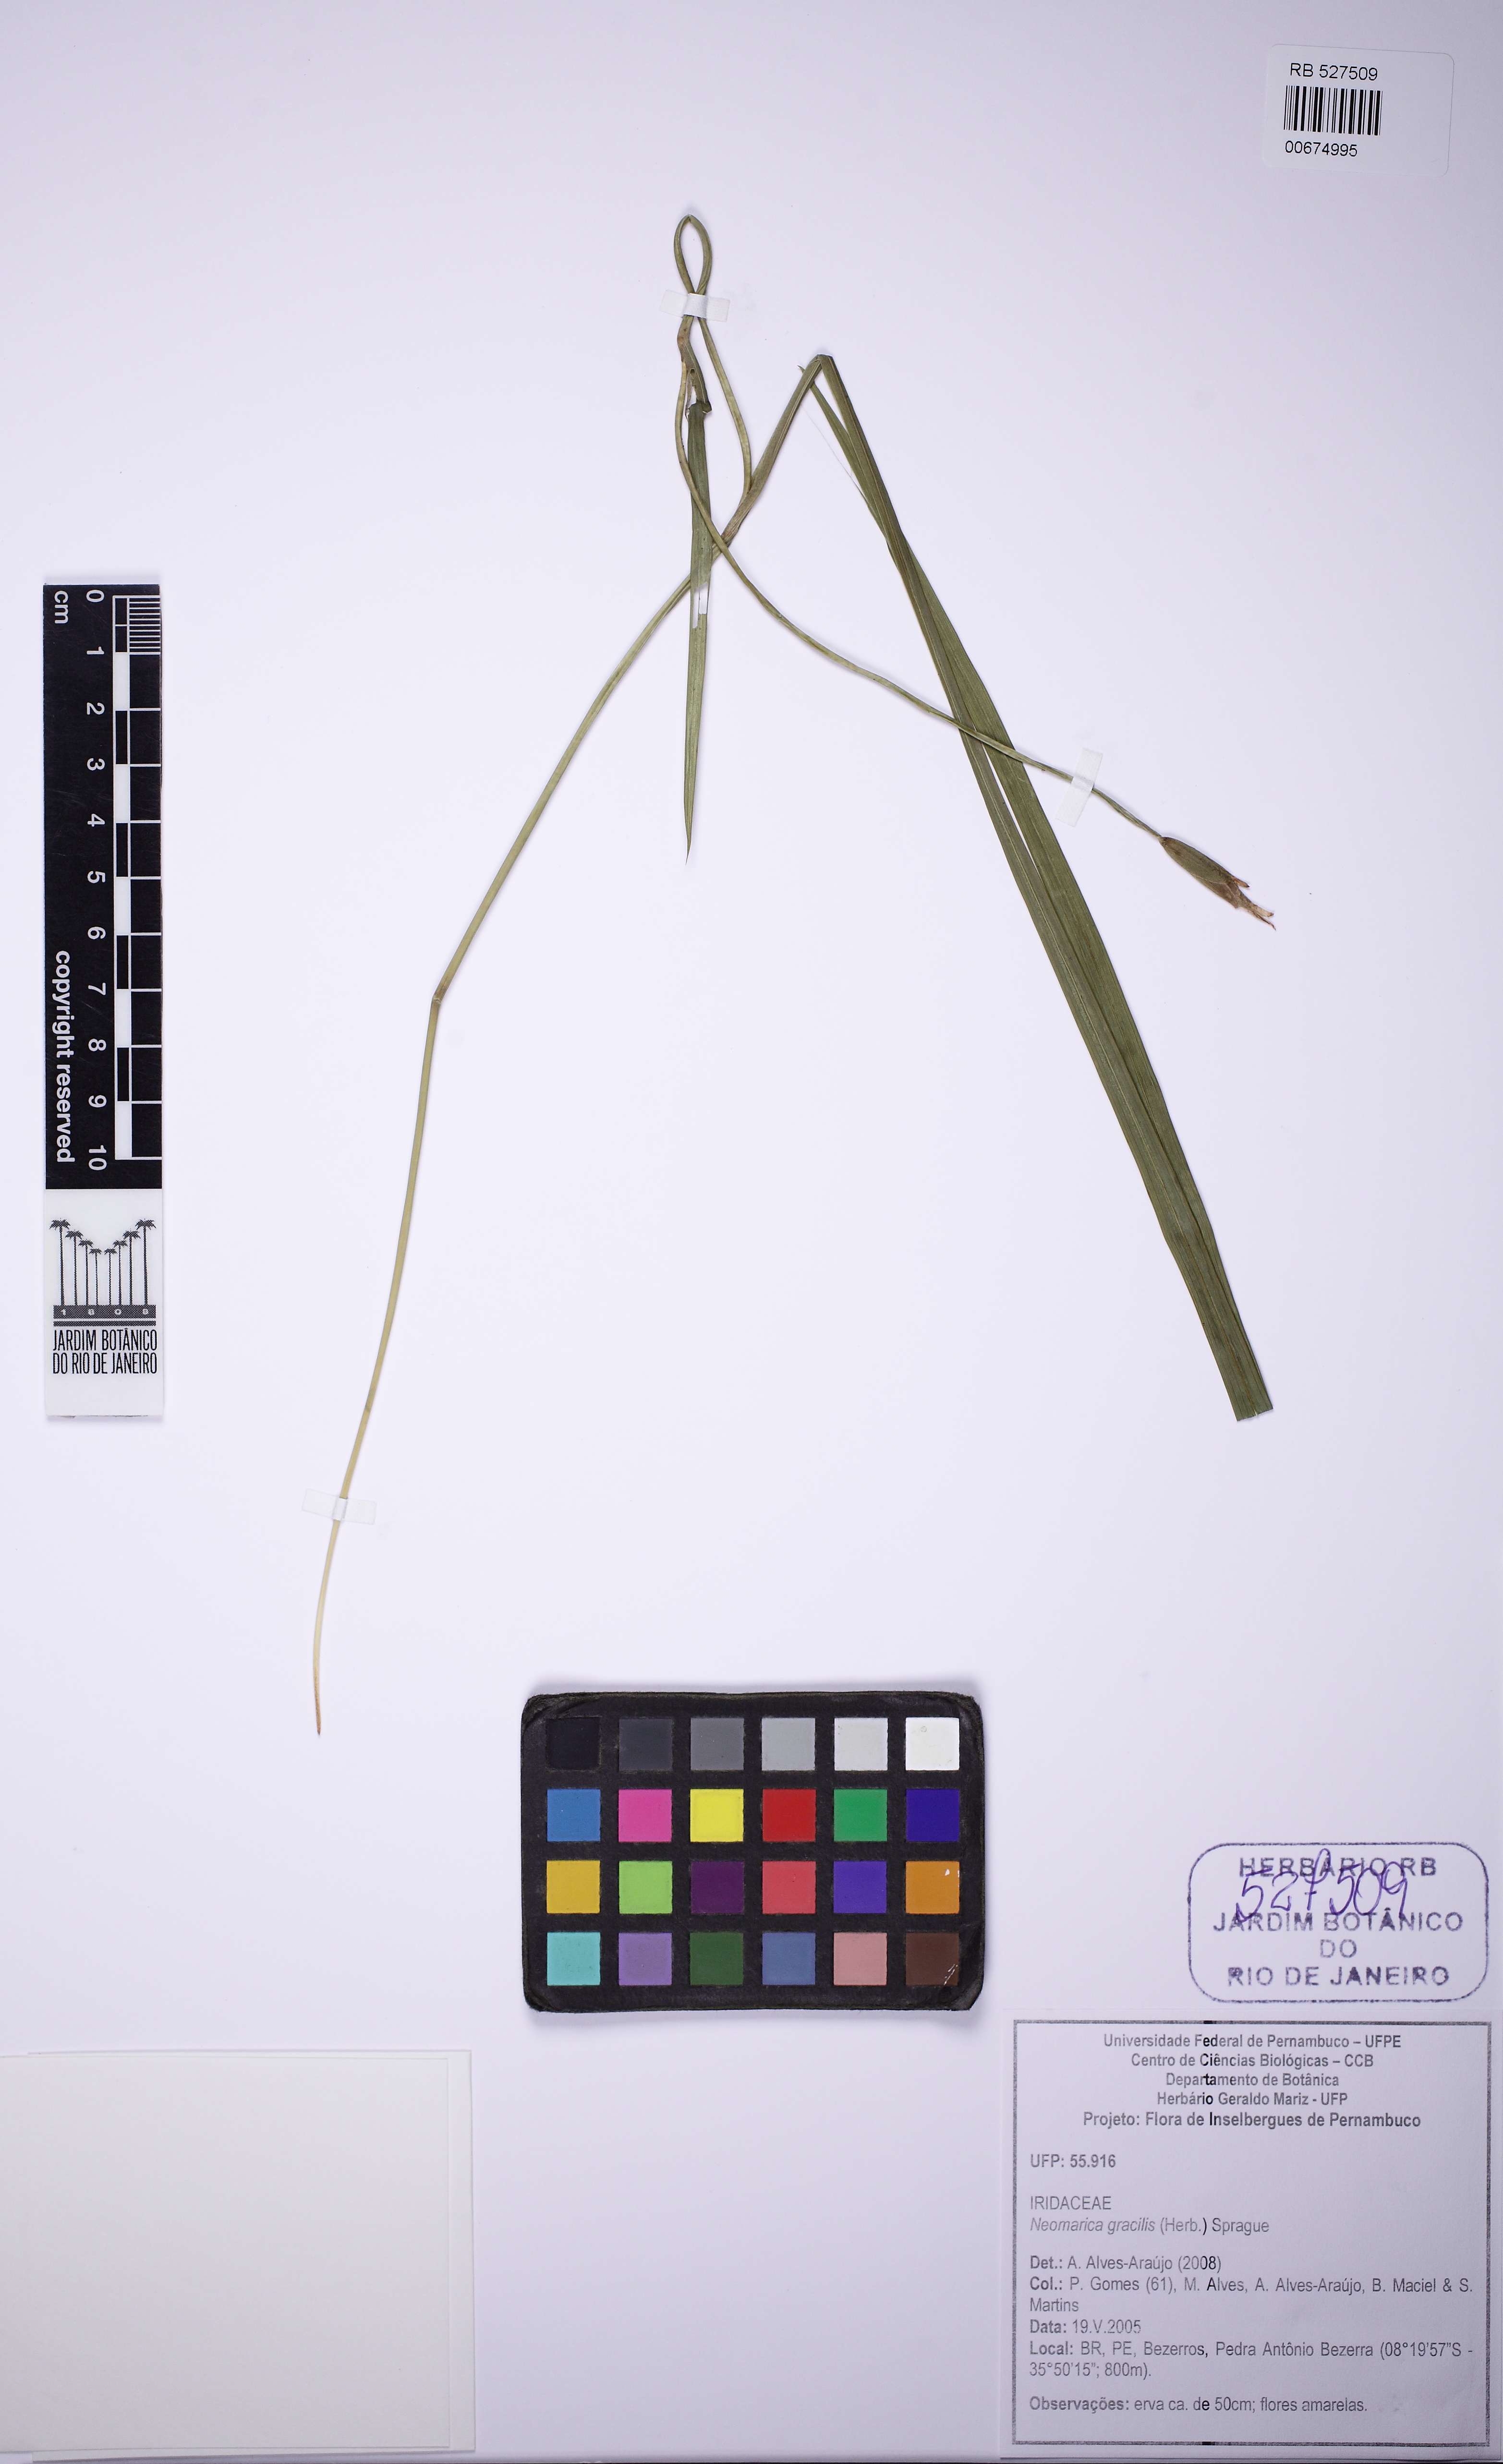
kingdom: Plantae
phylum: Tracheophyta
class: Liliopsida
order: Asparagales
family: Iridaceae
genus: Trimezia
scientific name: Trimezia gracilis
